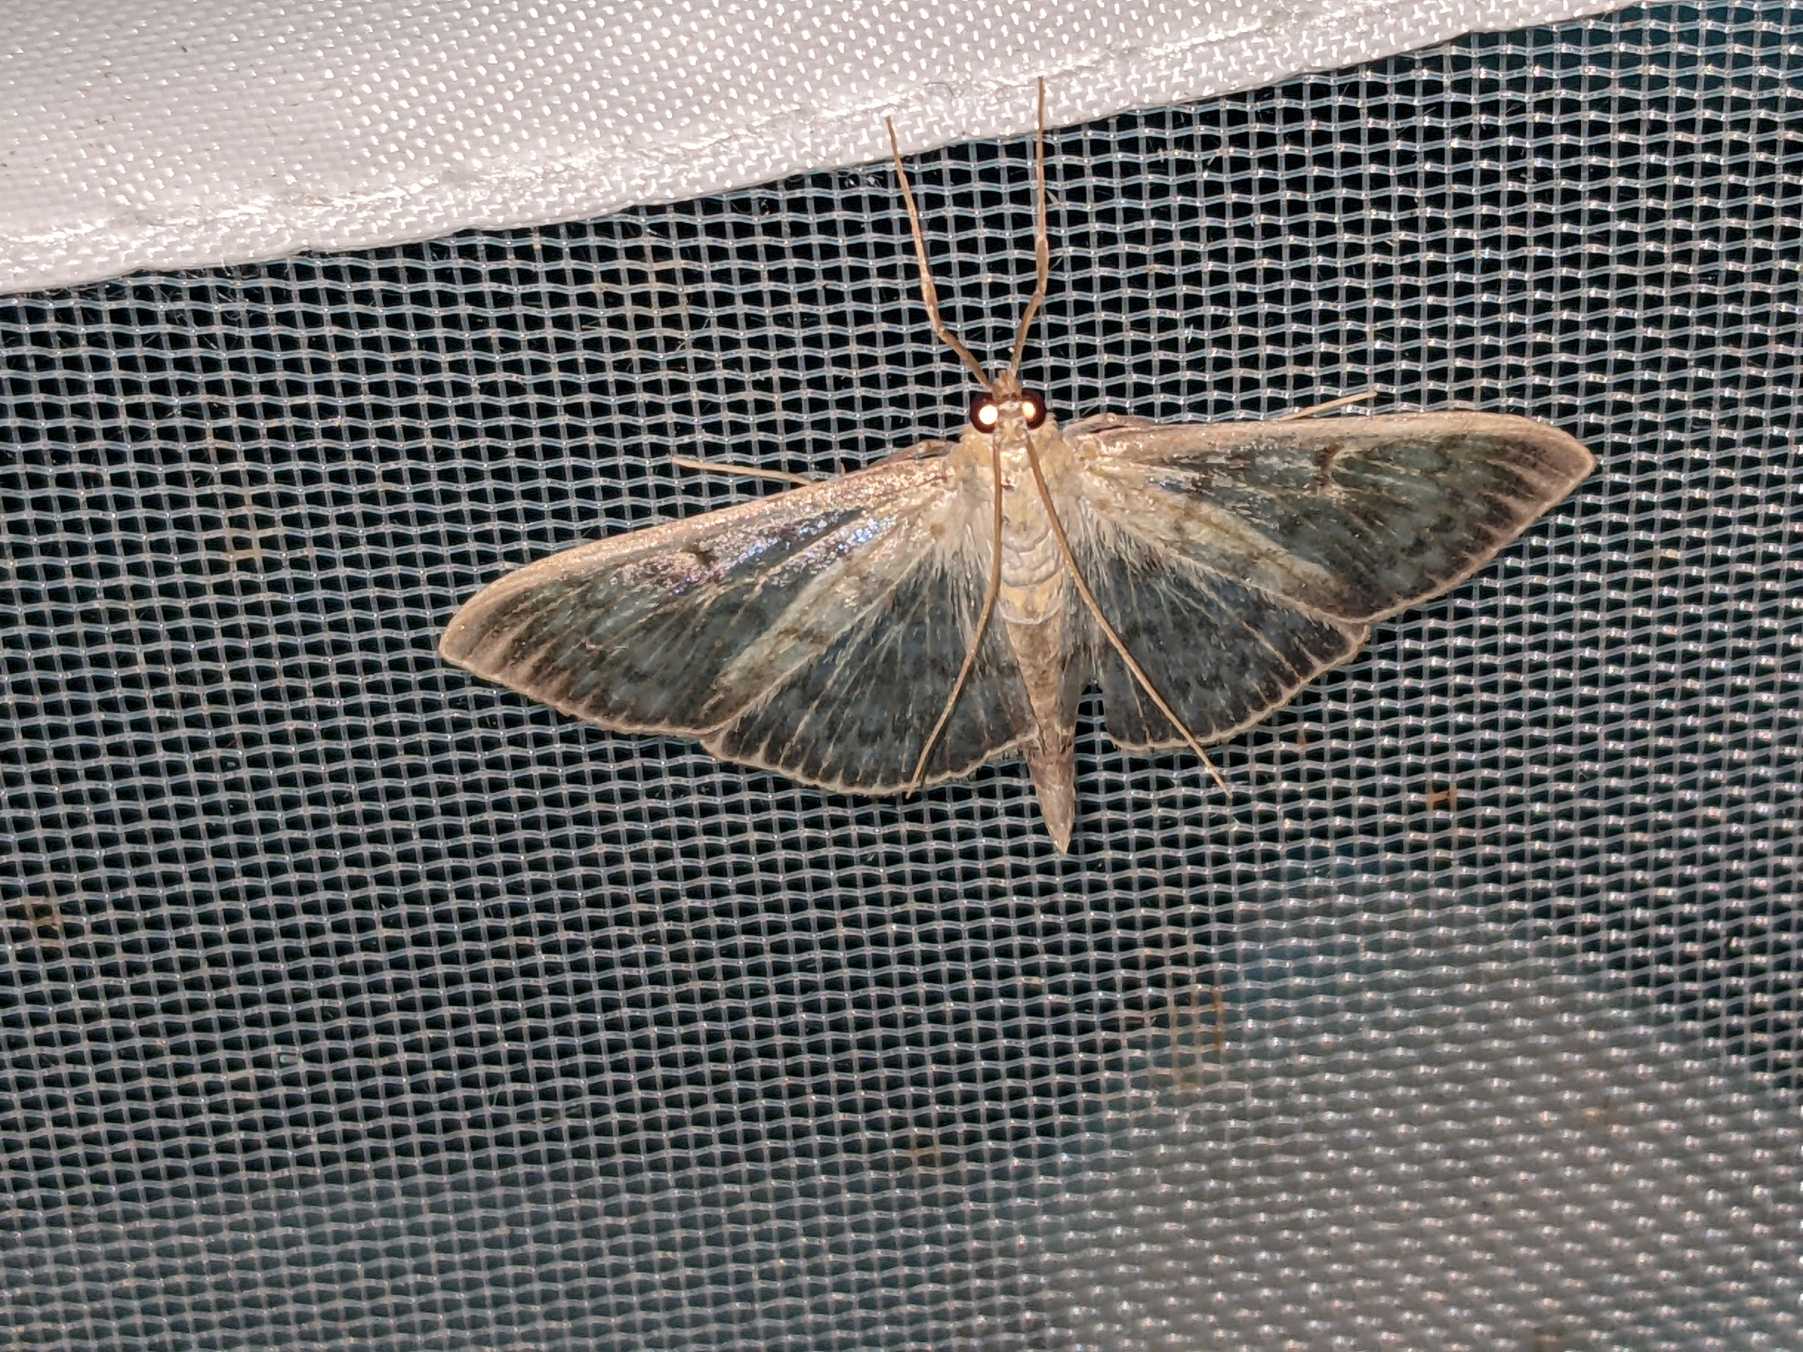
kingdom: Animalia
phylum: Arthropoda
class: Insecta
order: Lepidoptera
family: Crambidae
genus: Patania
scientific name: Patania ruralis
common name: Perlemorshalvmøl
